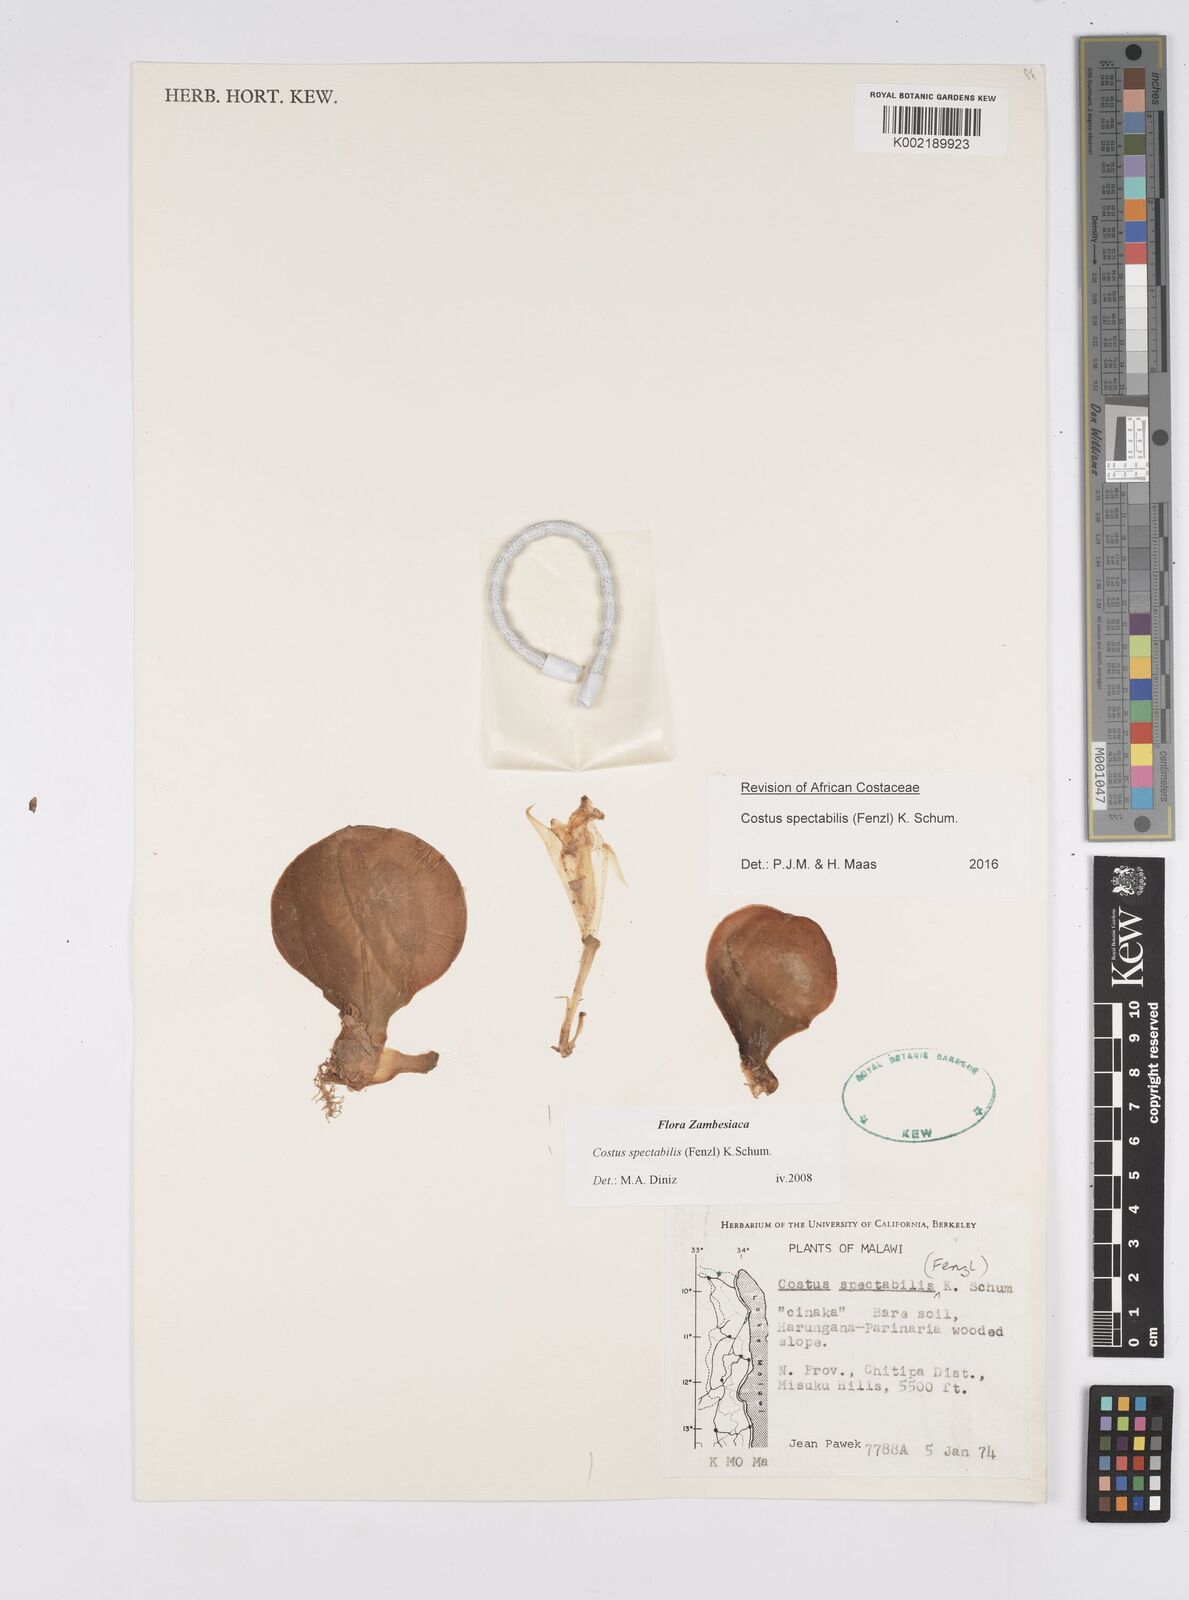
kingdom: Plantae
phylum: Tracheophyta
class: Liliopsida
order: Zingiberales
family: Costaceae
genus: Costus
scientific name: Costus spectabilis
